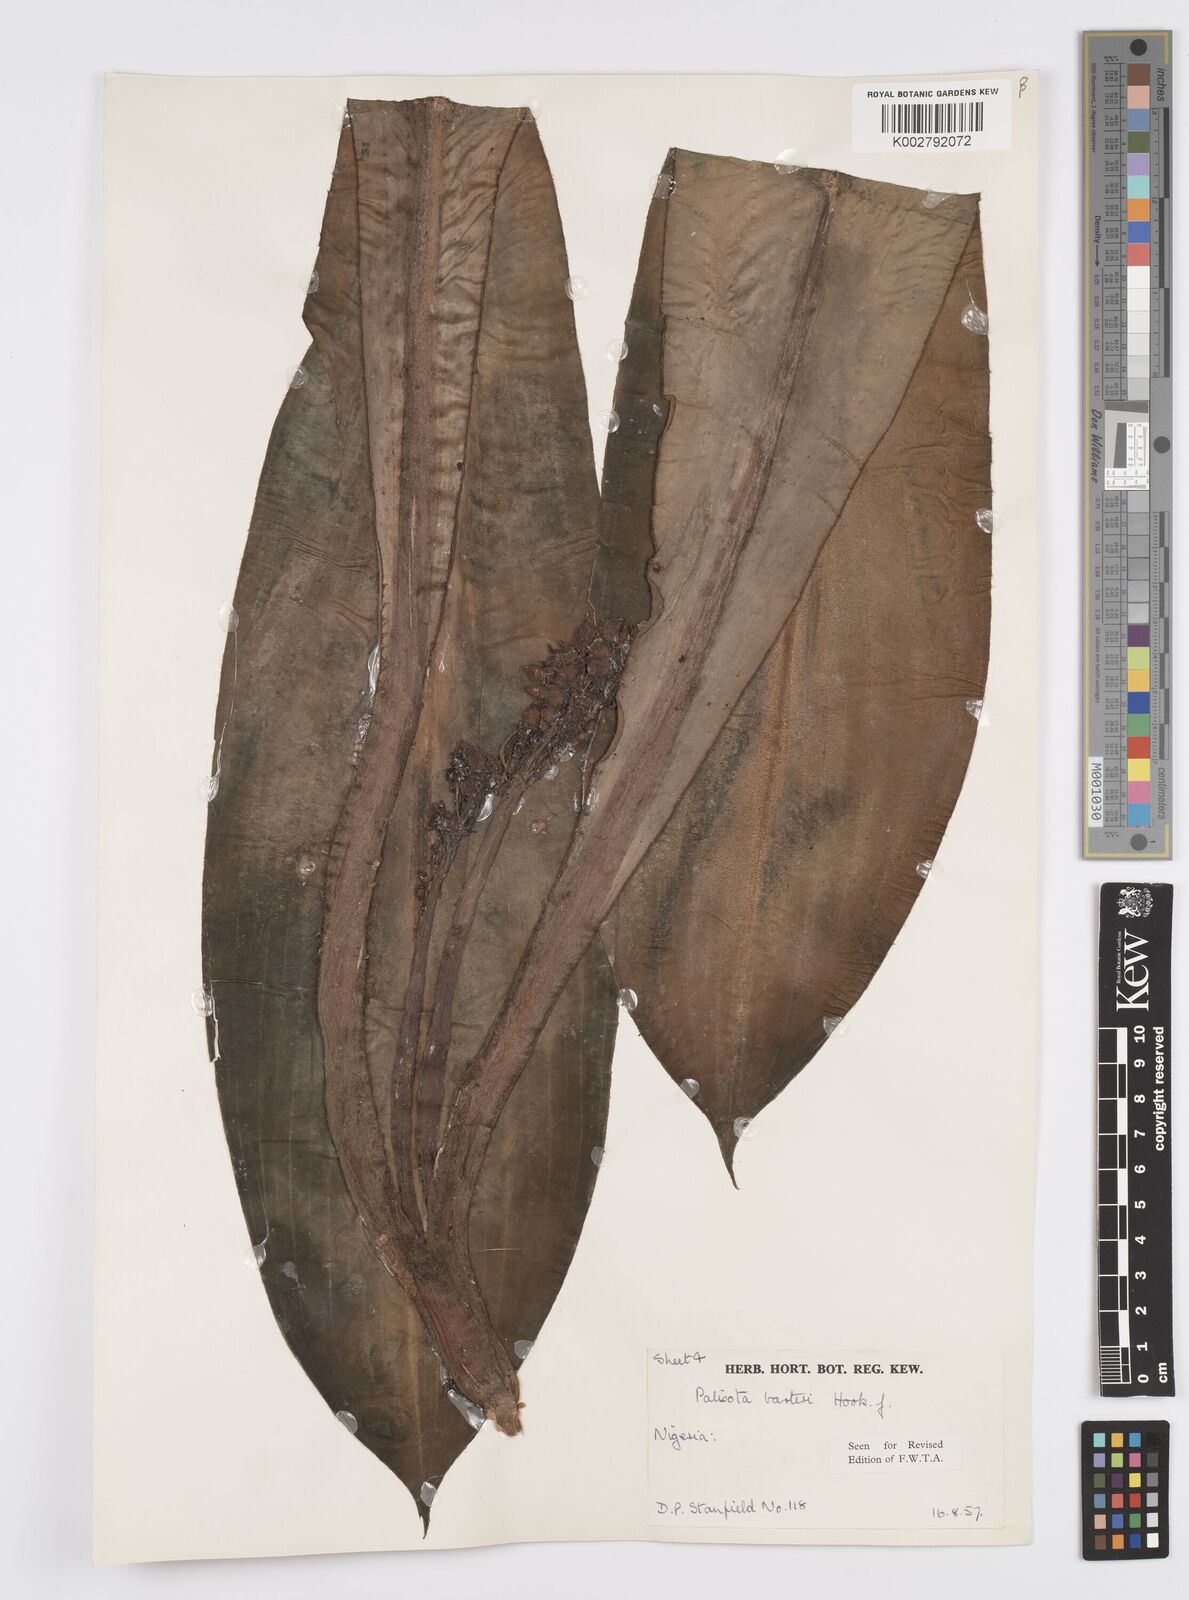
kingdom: Plantae
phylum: Tracheophyta
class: Liliopsida
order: Commelinales
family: Commelinaceae
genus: Palisota
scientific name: Palisota barteri
